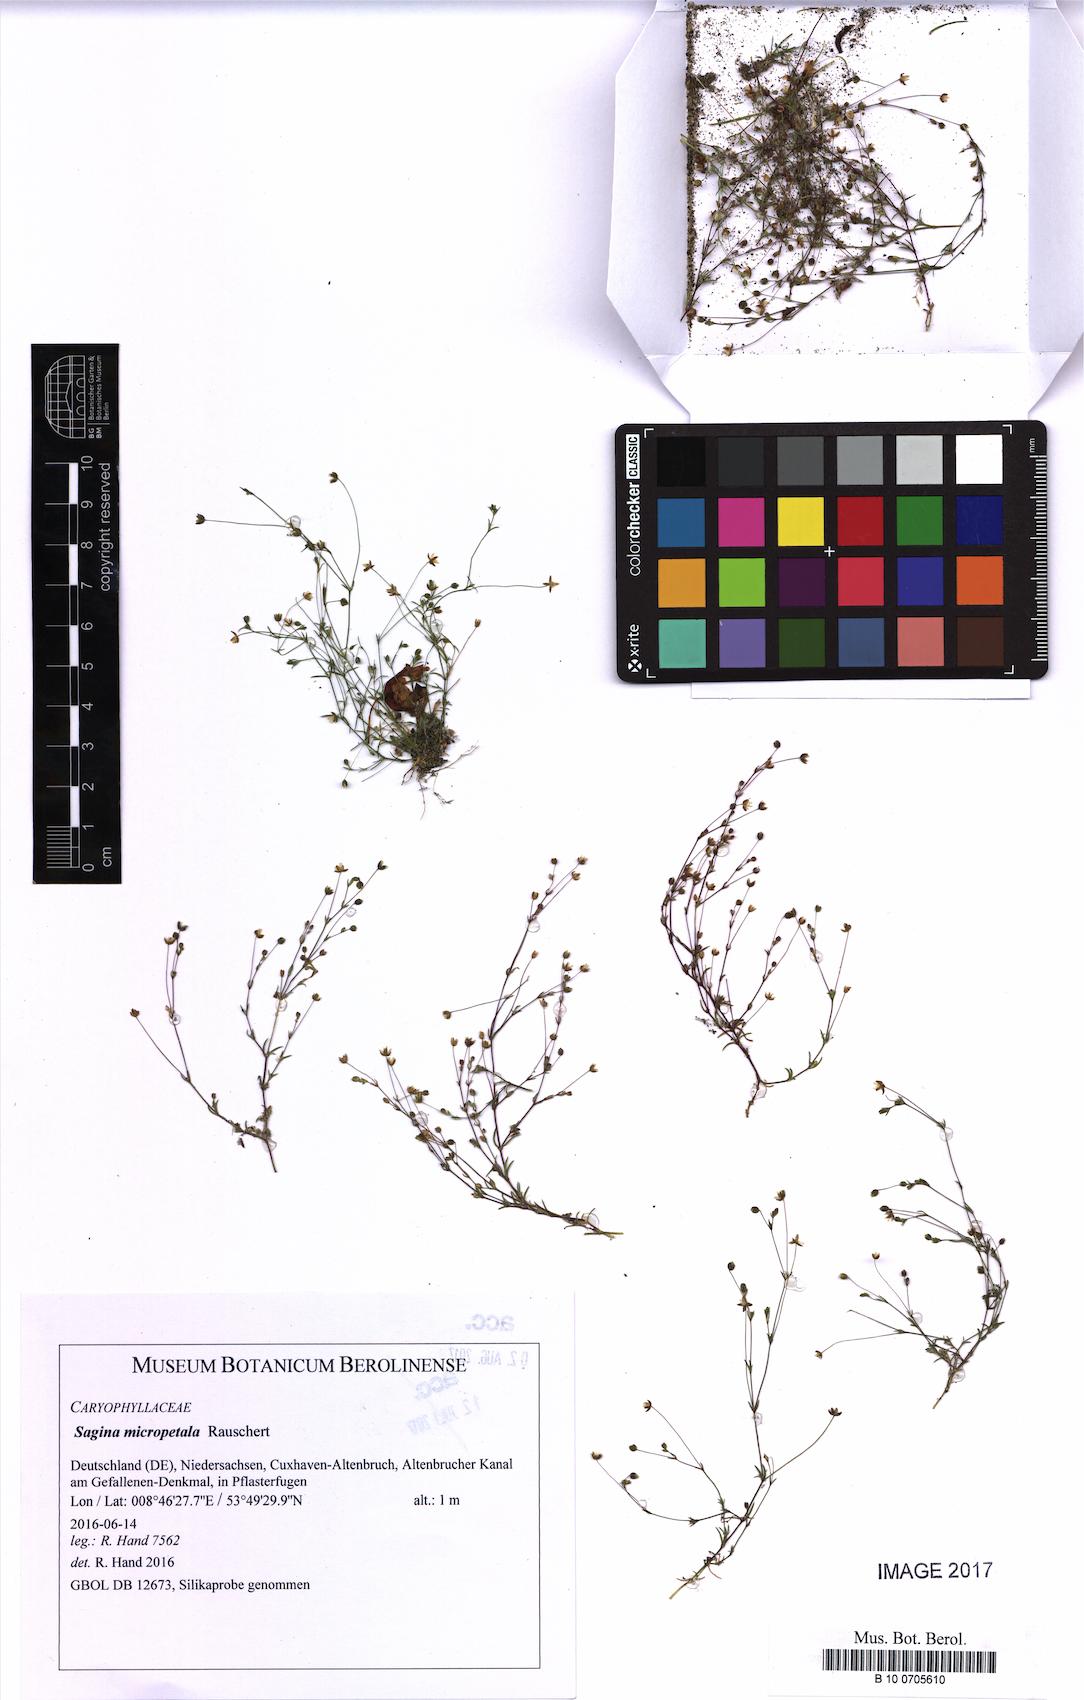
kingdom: Plantae
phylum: Tracheophyta
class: Magnoliopsida
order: Caryophyllales
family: Caryophyllaceae
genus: Sagina
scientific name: Sagina micropetala
